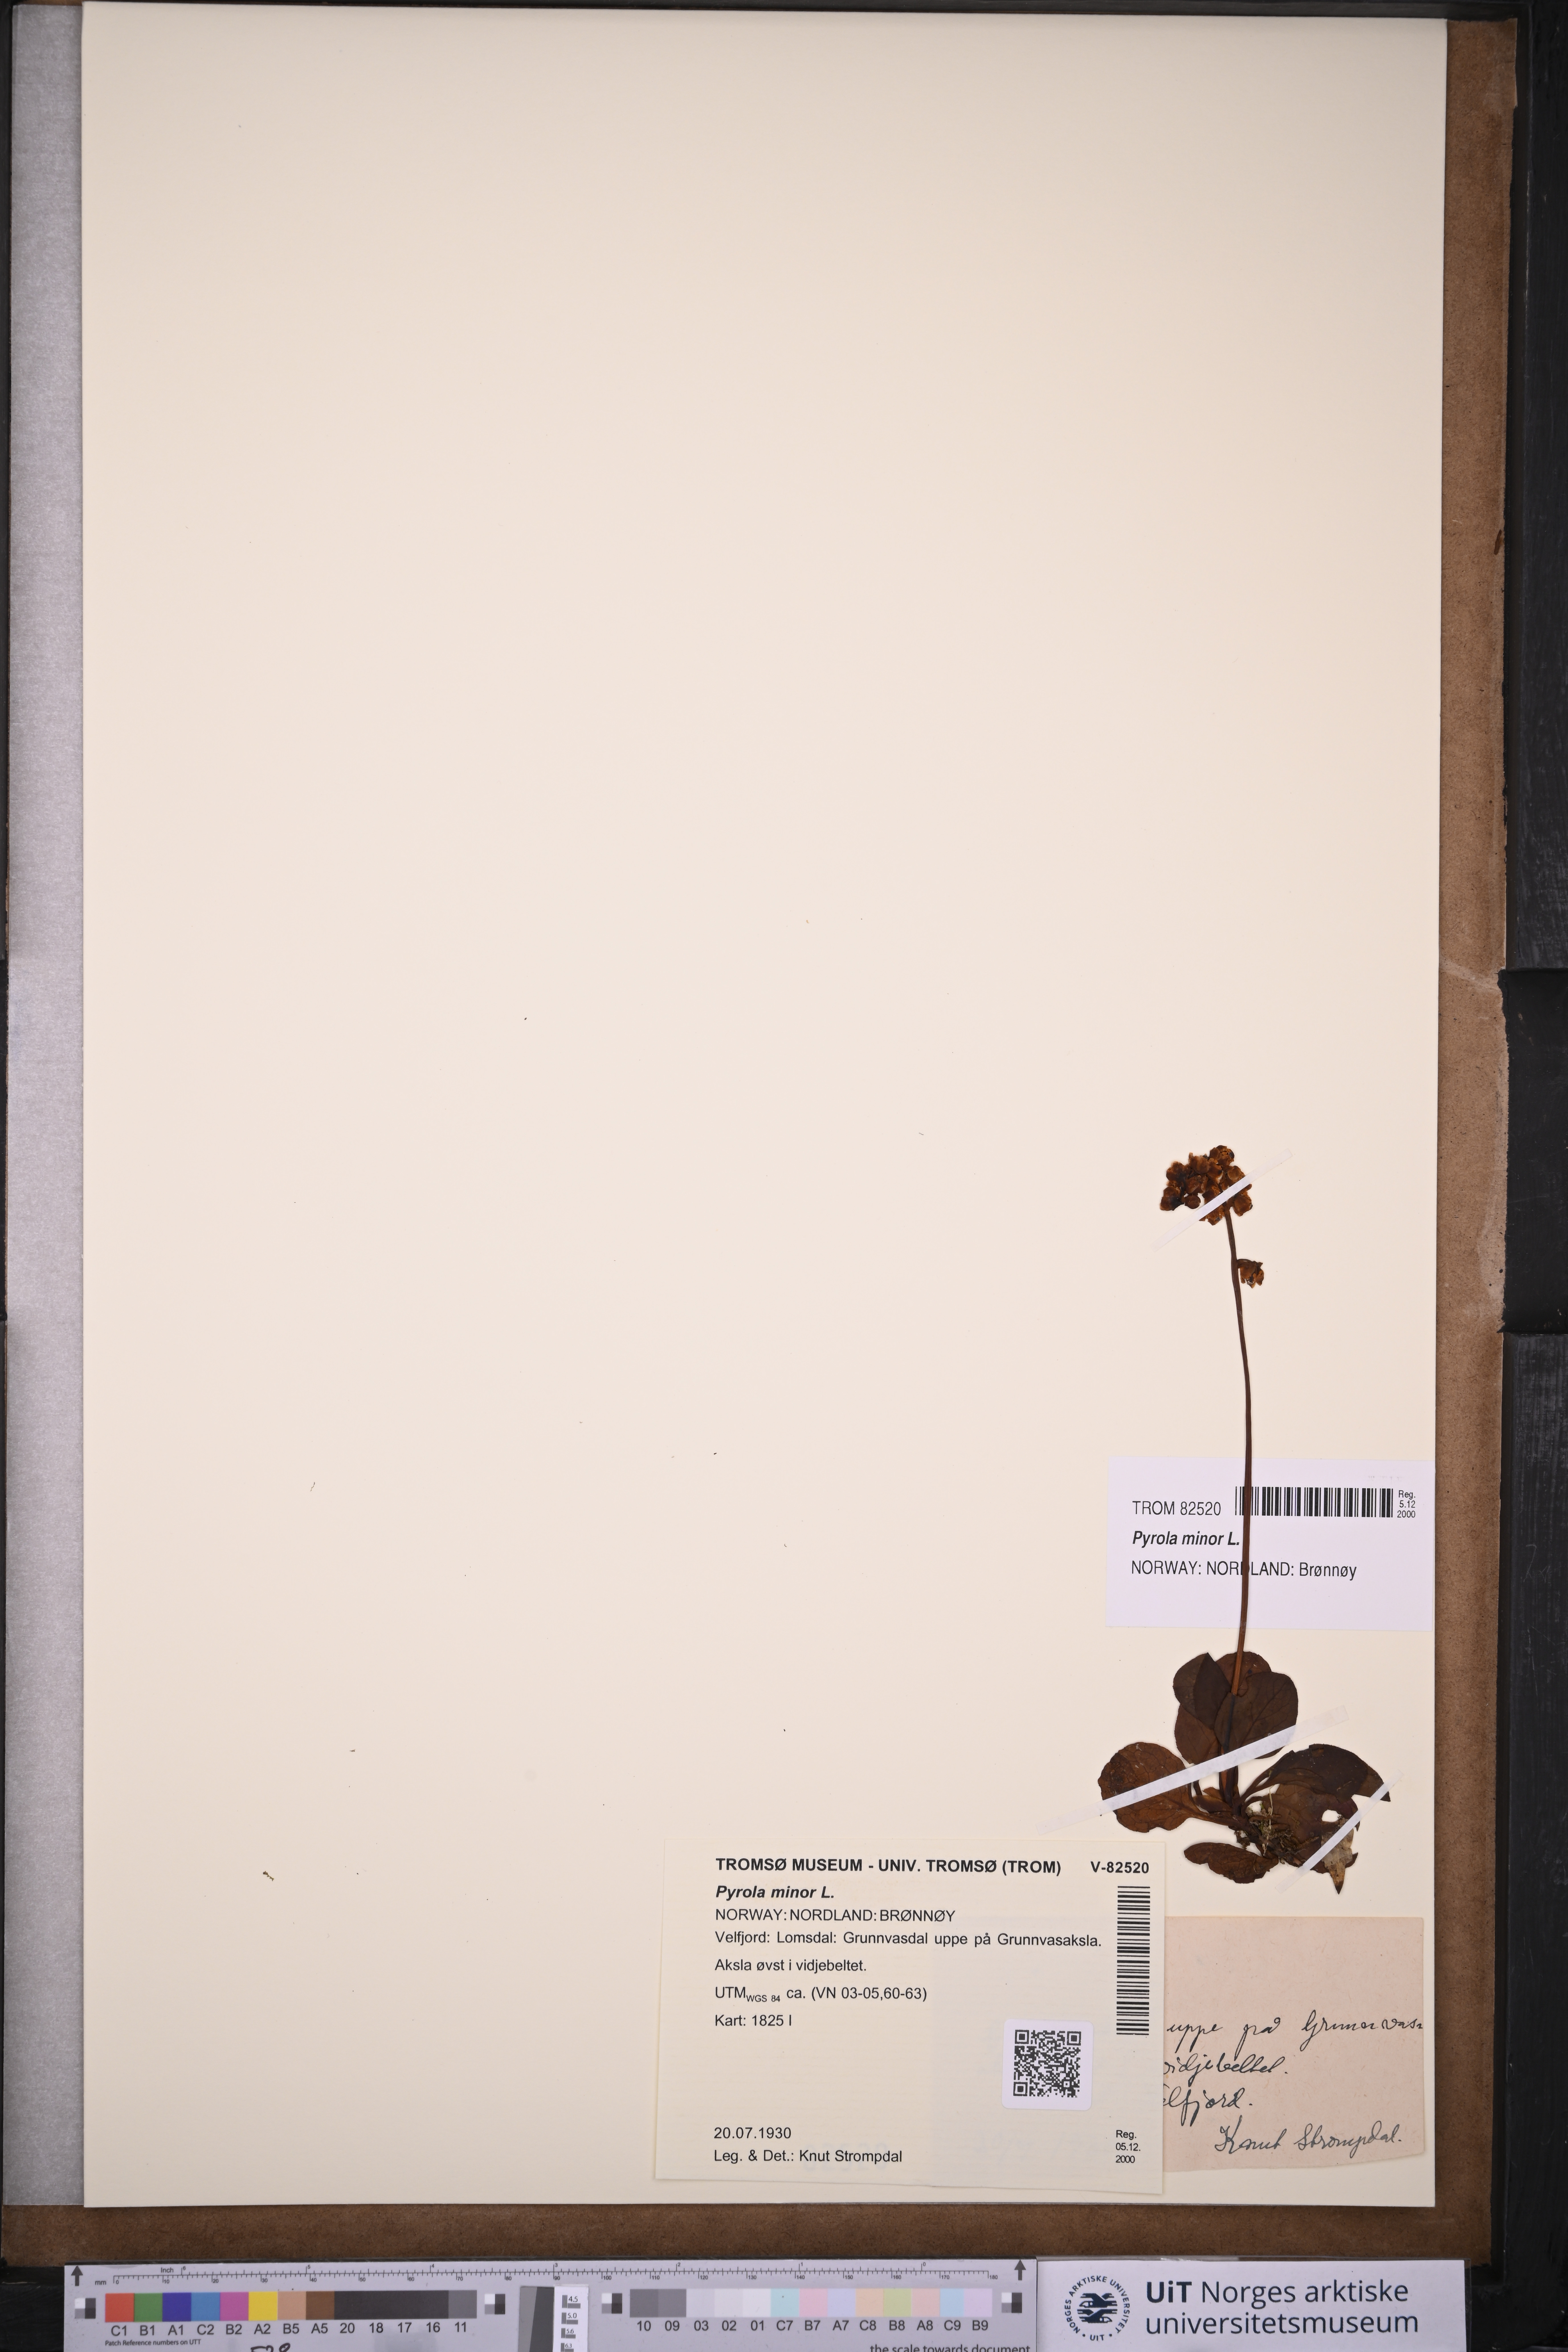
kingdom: Plantae
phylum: Tracheophyta
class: Magnoliopsida
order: Ericales
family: Ericaceae
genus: Pyrola
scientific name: Pyrola minor
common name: Common wintergreen
